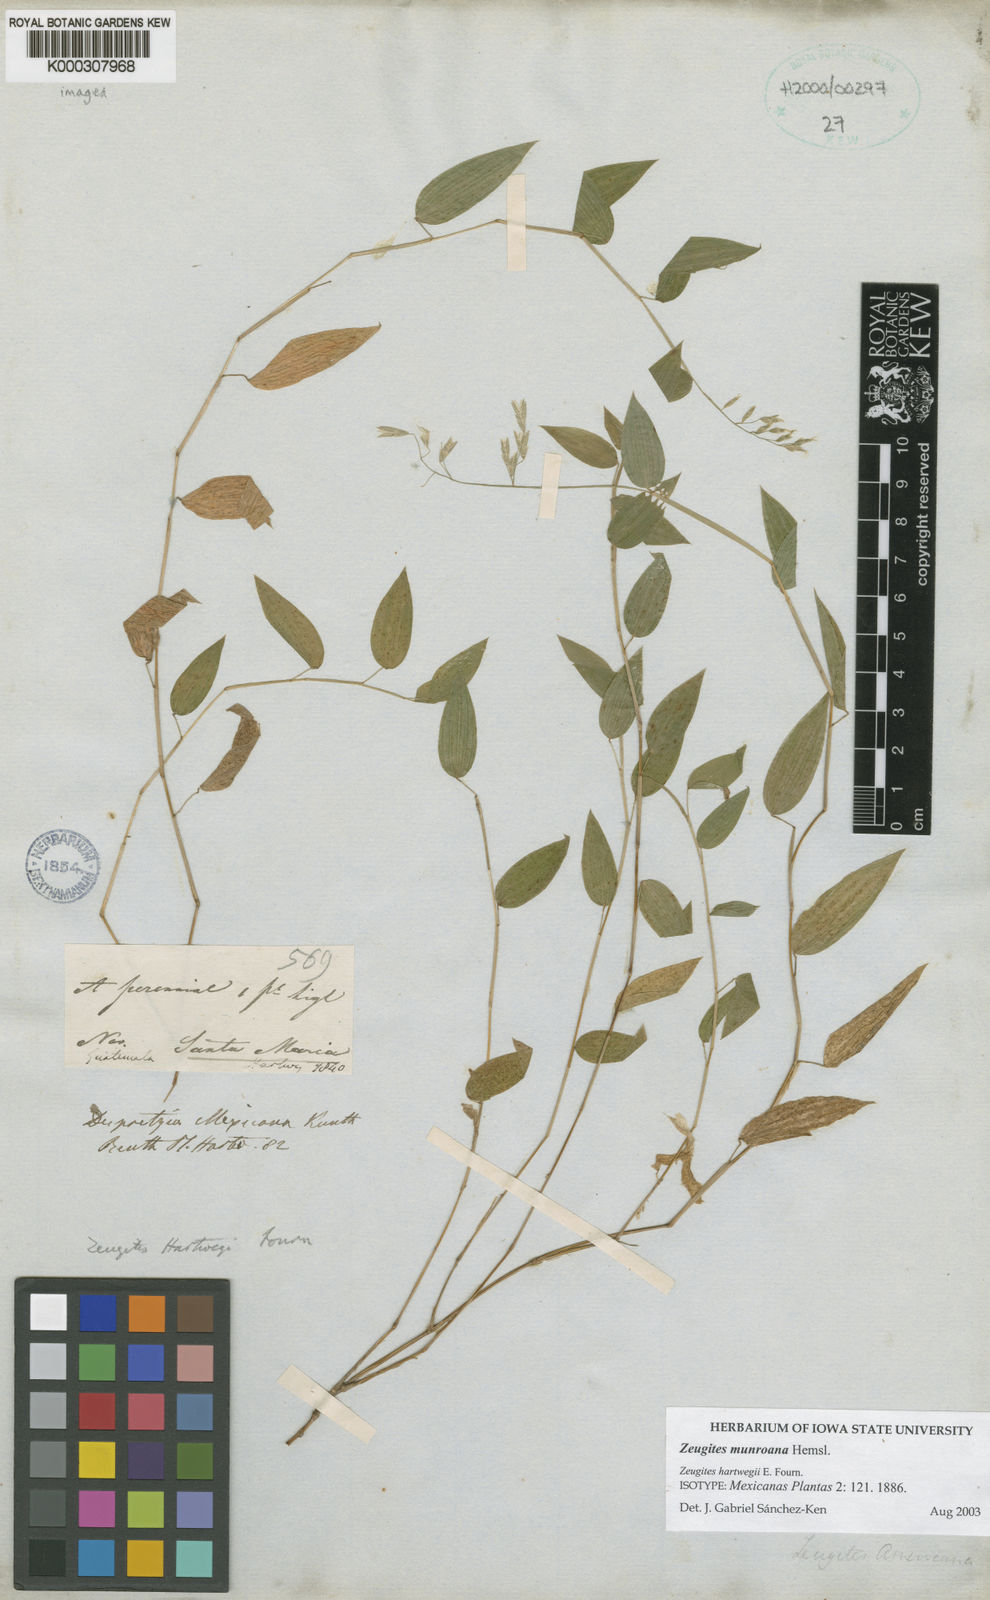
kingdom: Plantae
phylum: Tracheophyta
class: Liliopsida
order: Poales
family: Poaceae
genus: Zeugites
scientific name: Zeugites munroanus
